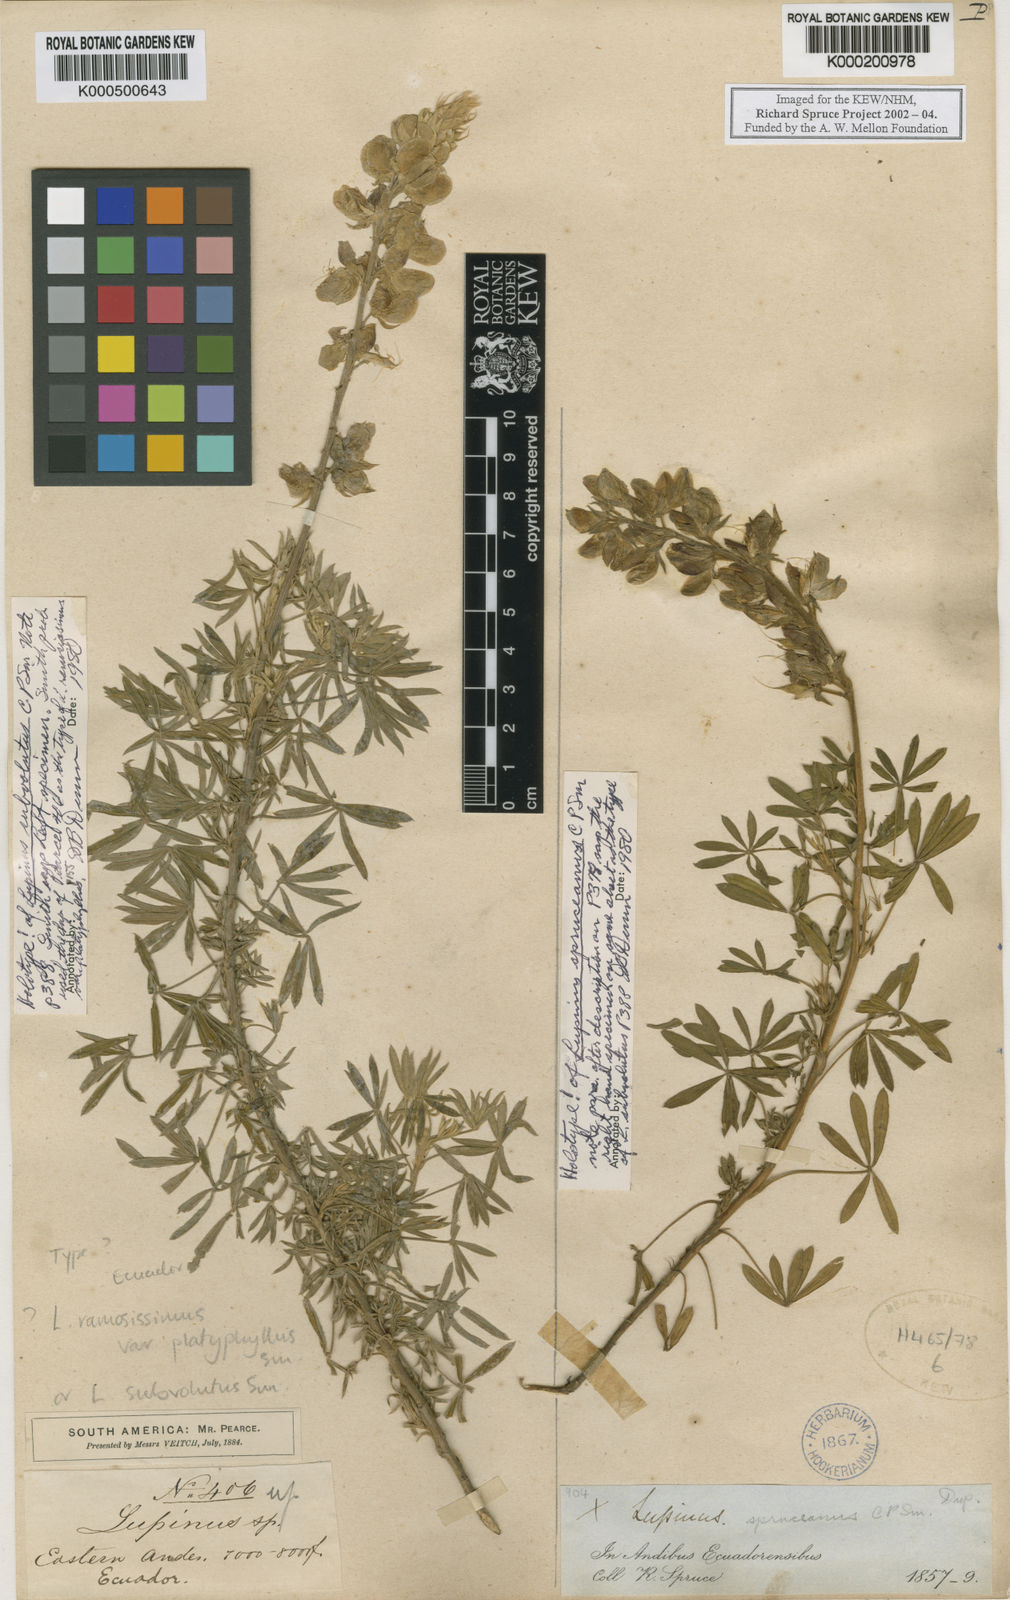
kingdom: Plantae
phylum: Tracheophyta
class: Magnoliopsida
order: Fabales
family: Fabaceae
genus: Lupinus
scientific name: Lupinus ramosissimus
